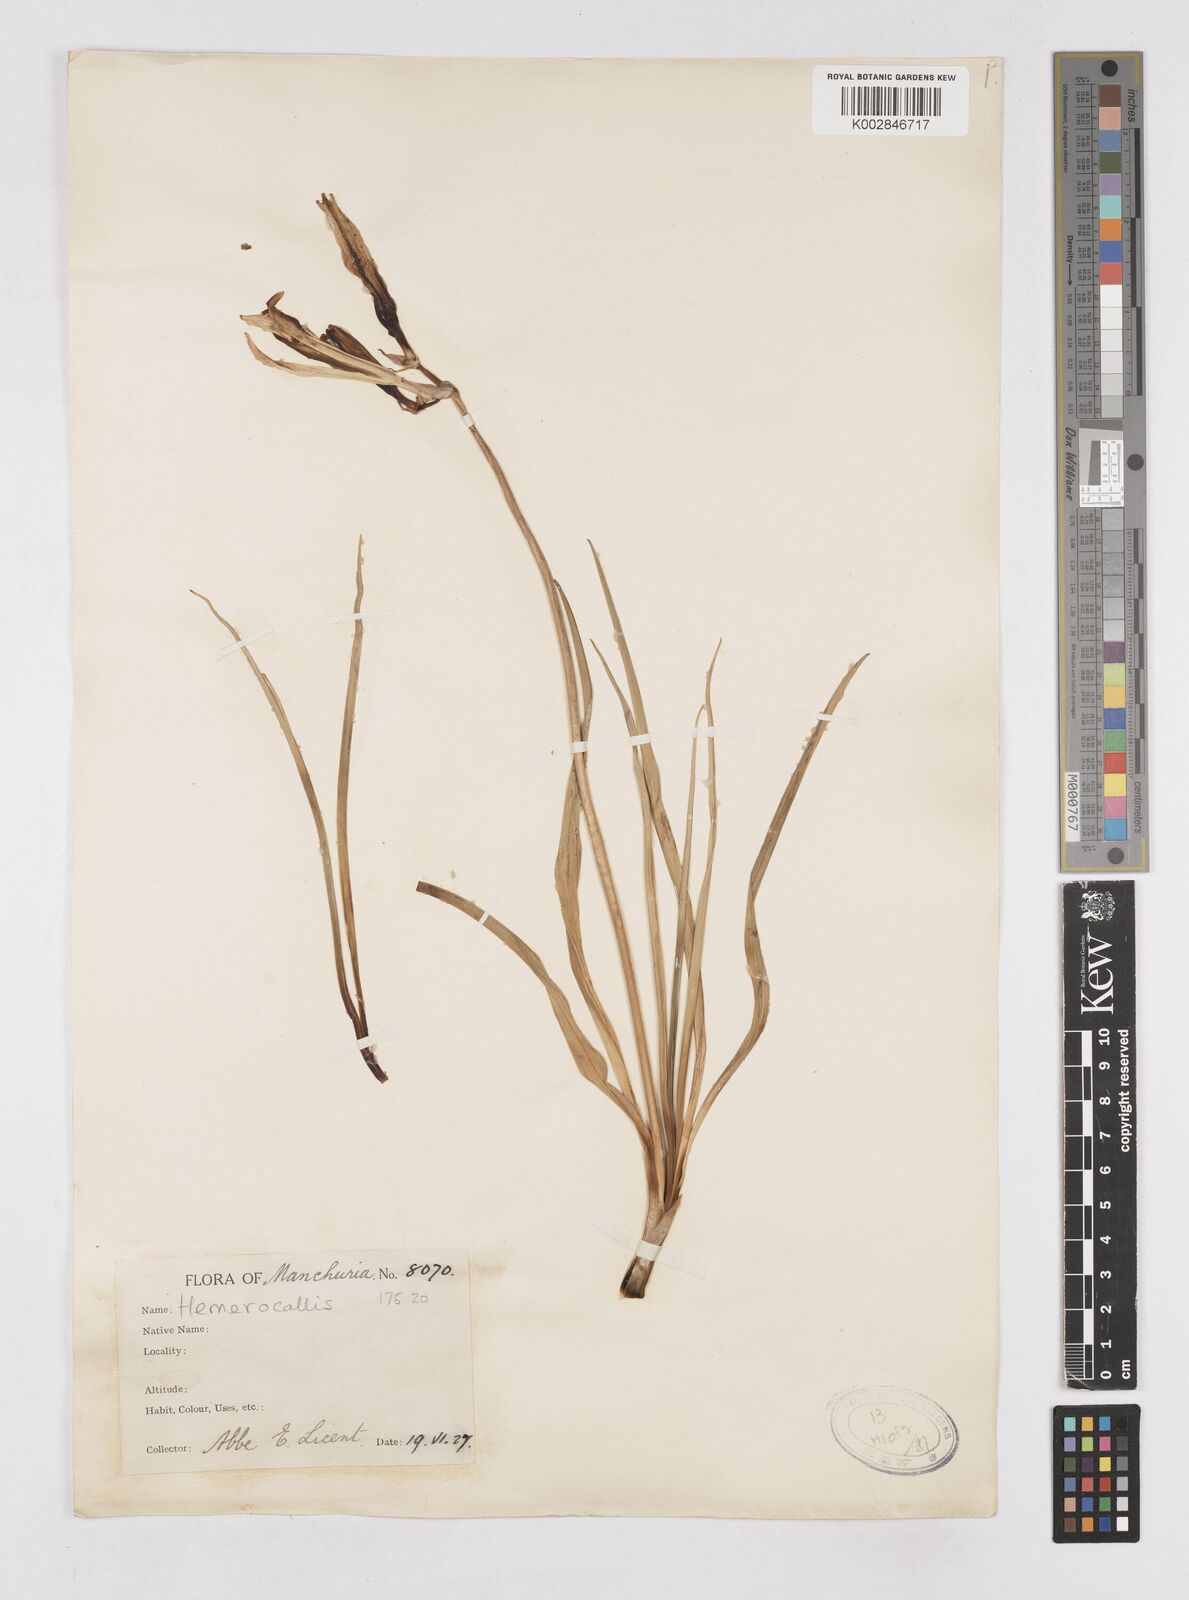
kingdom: Plantae
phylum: Tracheophyta
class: Liliopsida
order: Asparagales
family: Asphodelaceae
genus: Hemerocallis
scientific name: Hemerocallis
